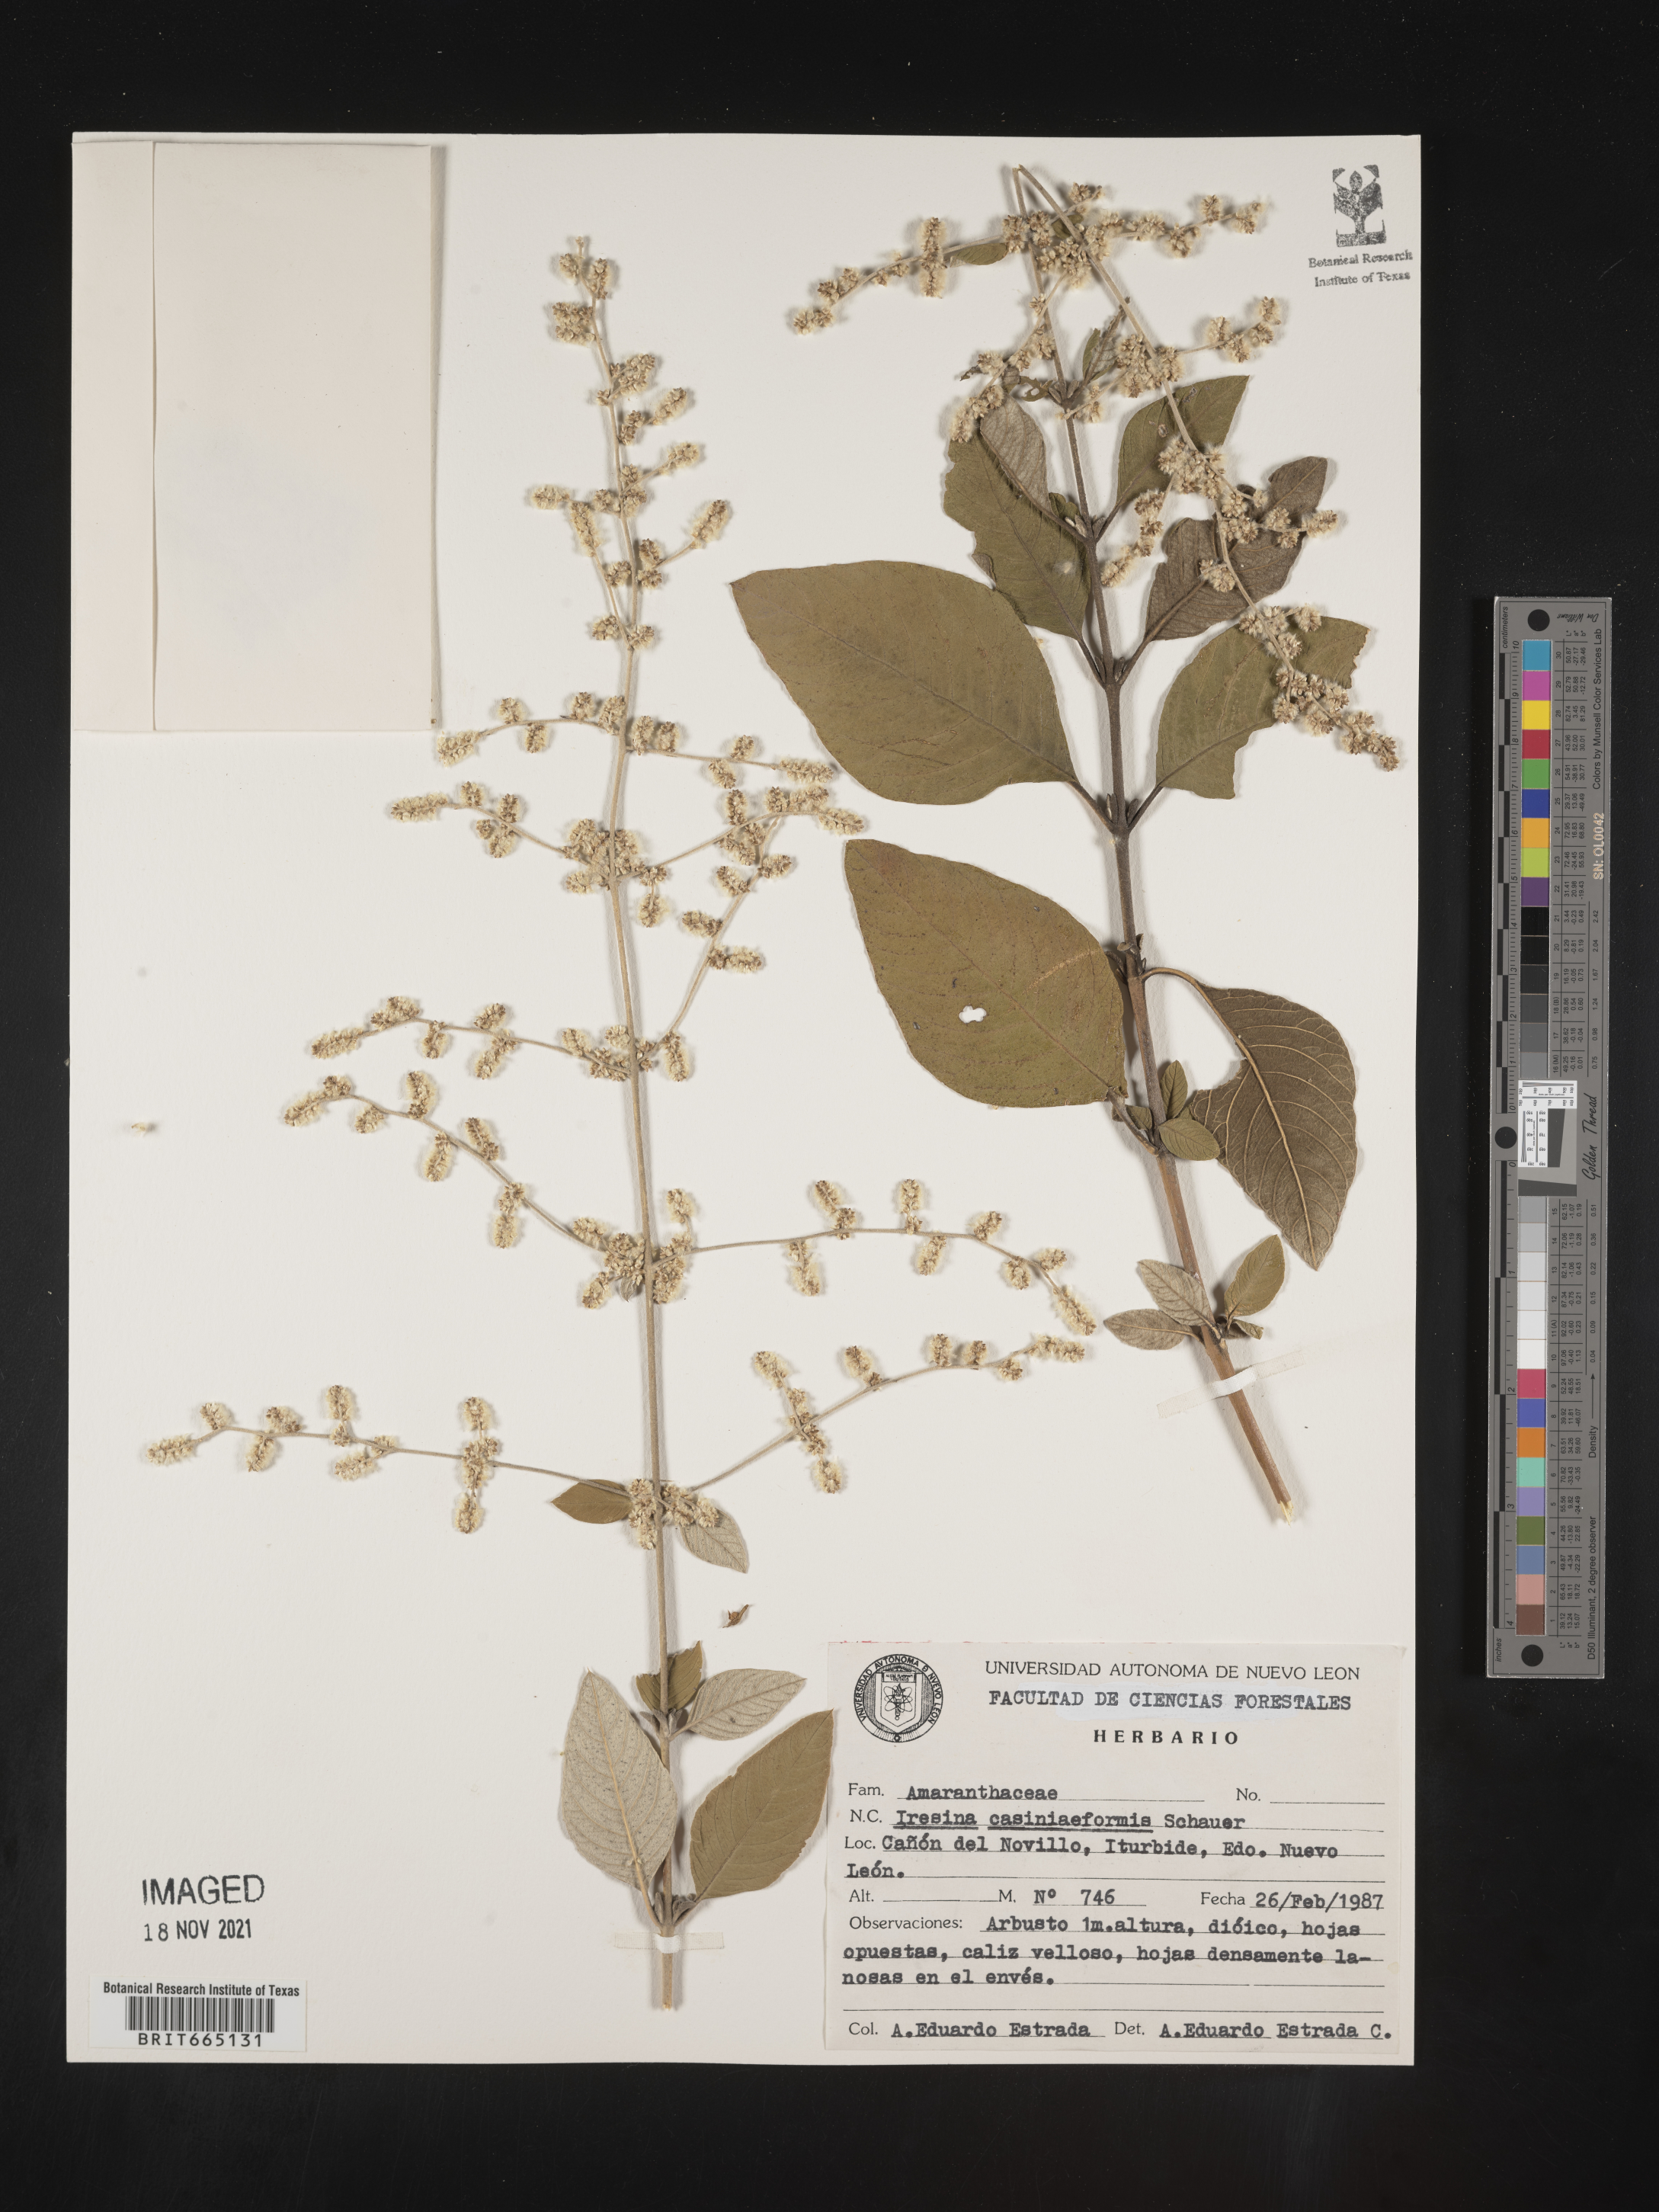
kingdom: Plantae
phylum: Tracheophyta
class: Magnoliopsida
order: Caryophyllales
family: Amaranthaceae
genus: Iresine
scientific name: Iresine
